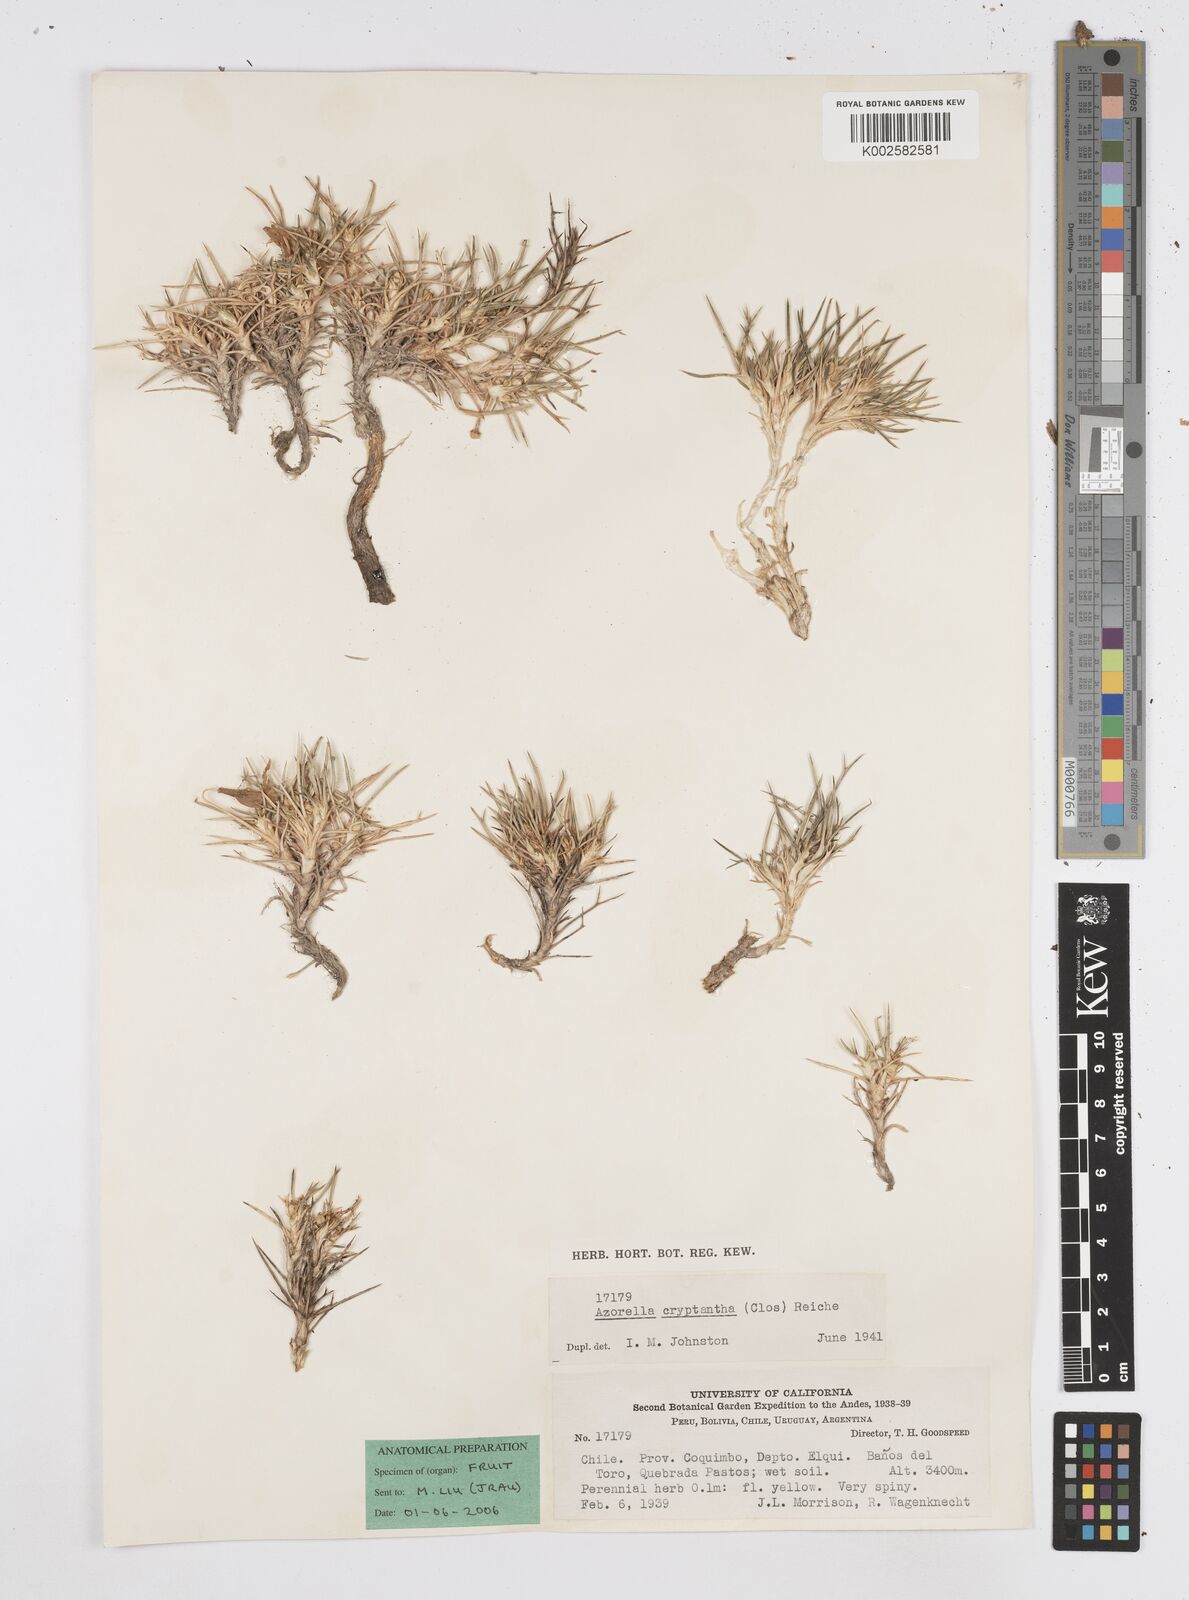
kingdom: Plantae
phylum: Tracheophyta
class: Magnoliopsida
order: Apiales
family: Apiaceae
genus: Azorella
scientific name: Azorella cryptantha
